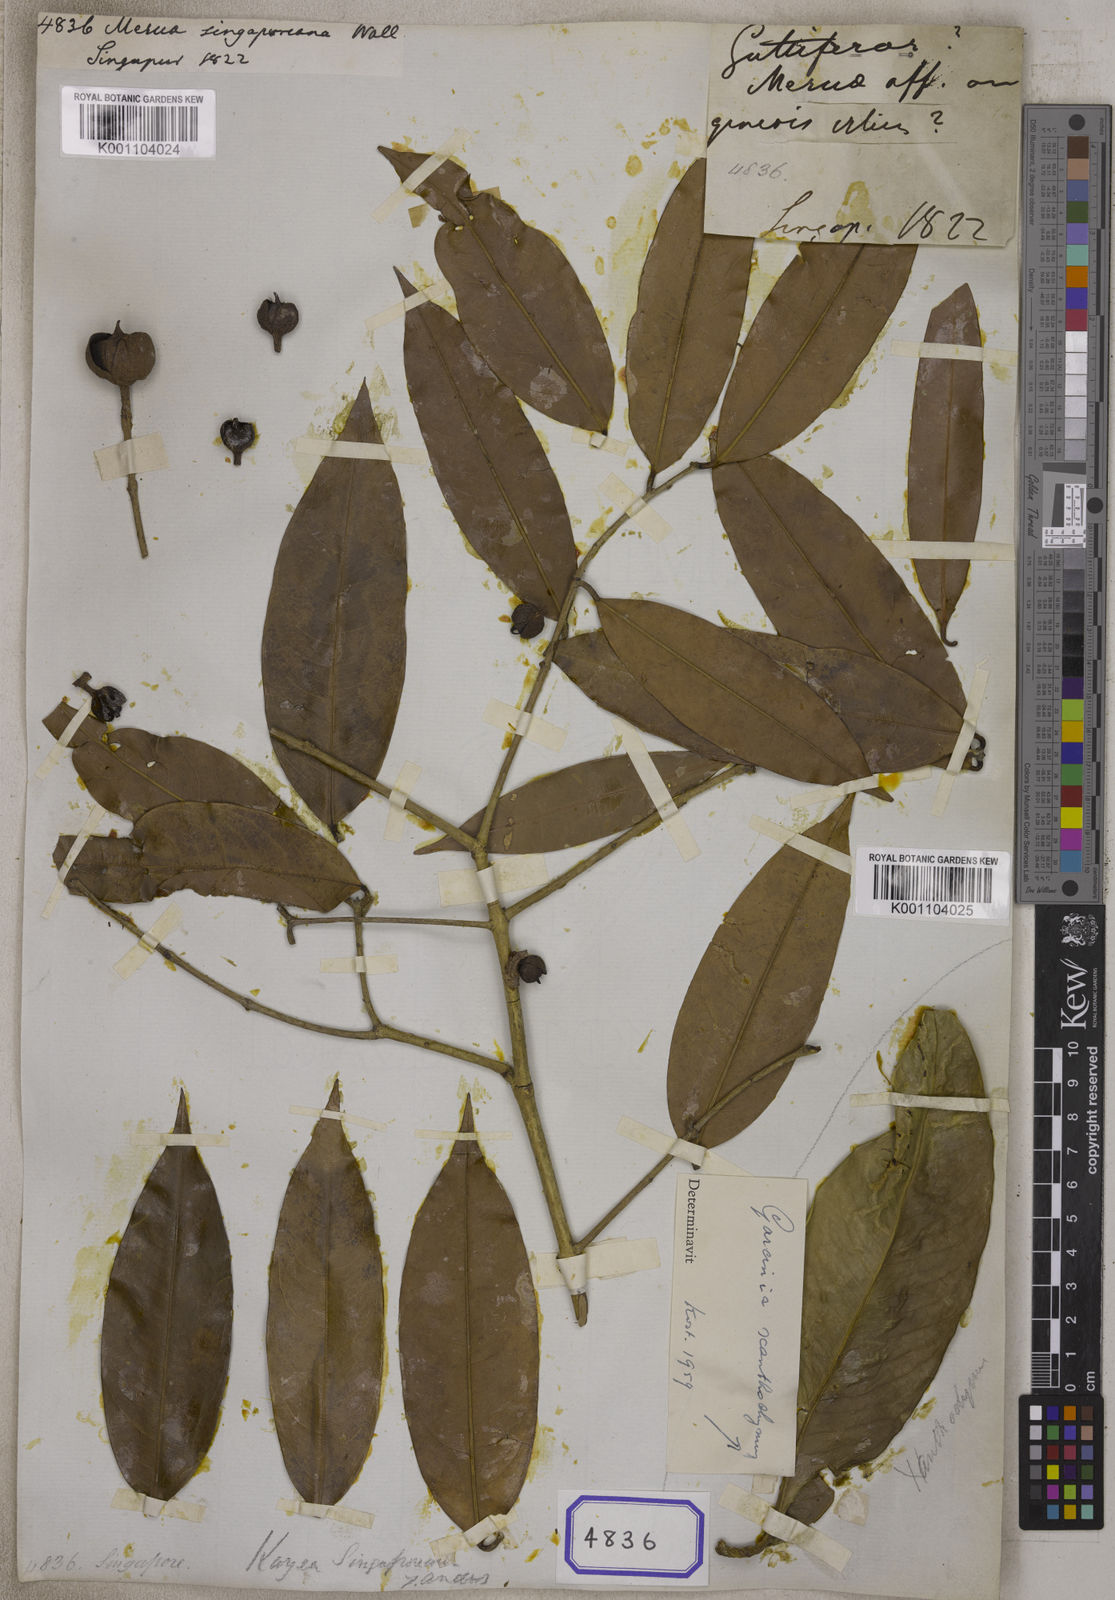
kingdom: Plantae
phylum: Tracheophyta
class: Magnoliopsida
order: Malpighiales
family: Calophyllaceae
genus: Kayea
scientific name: Kayea racemosa
